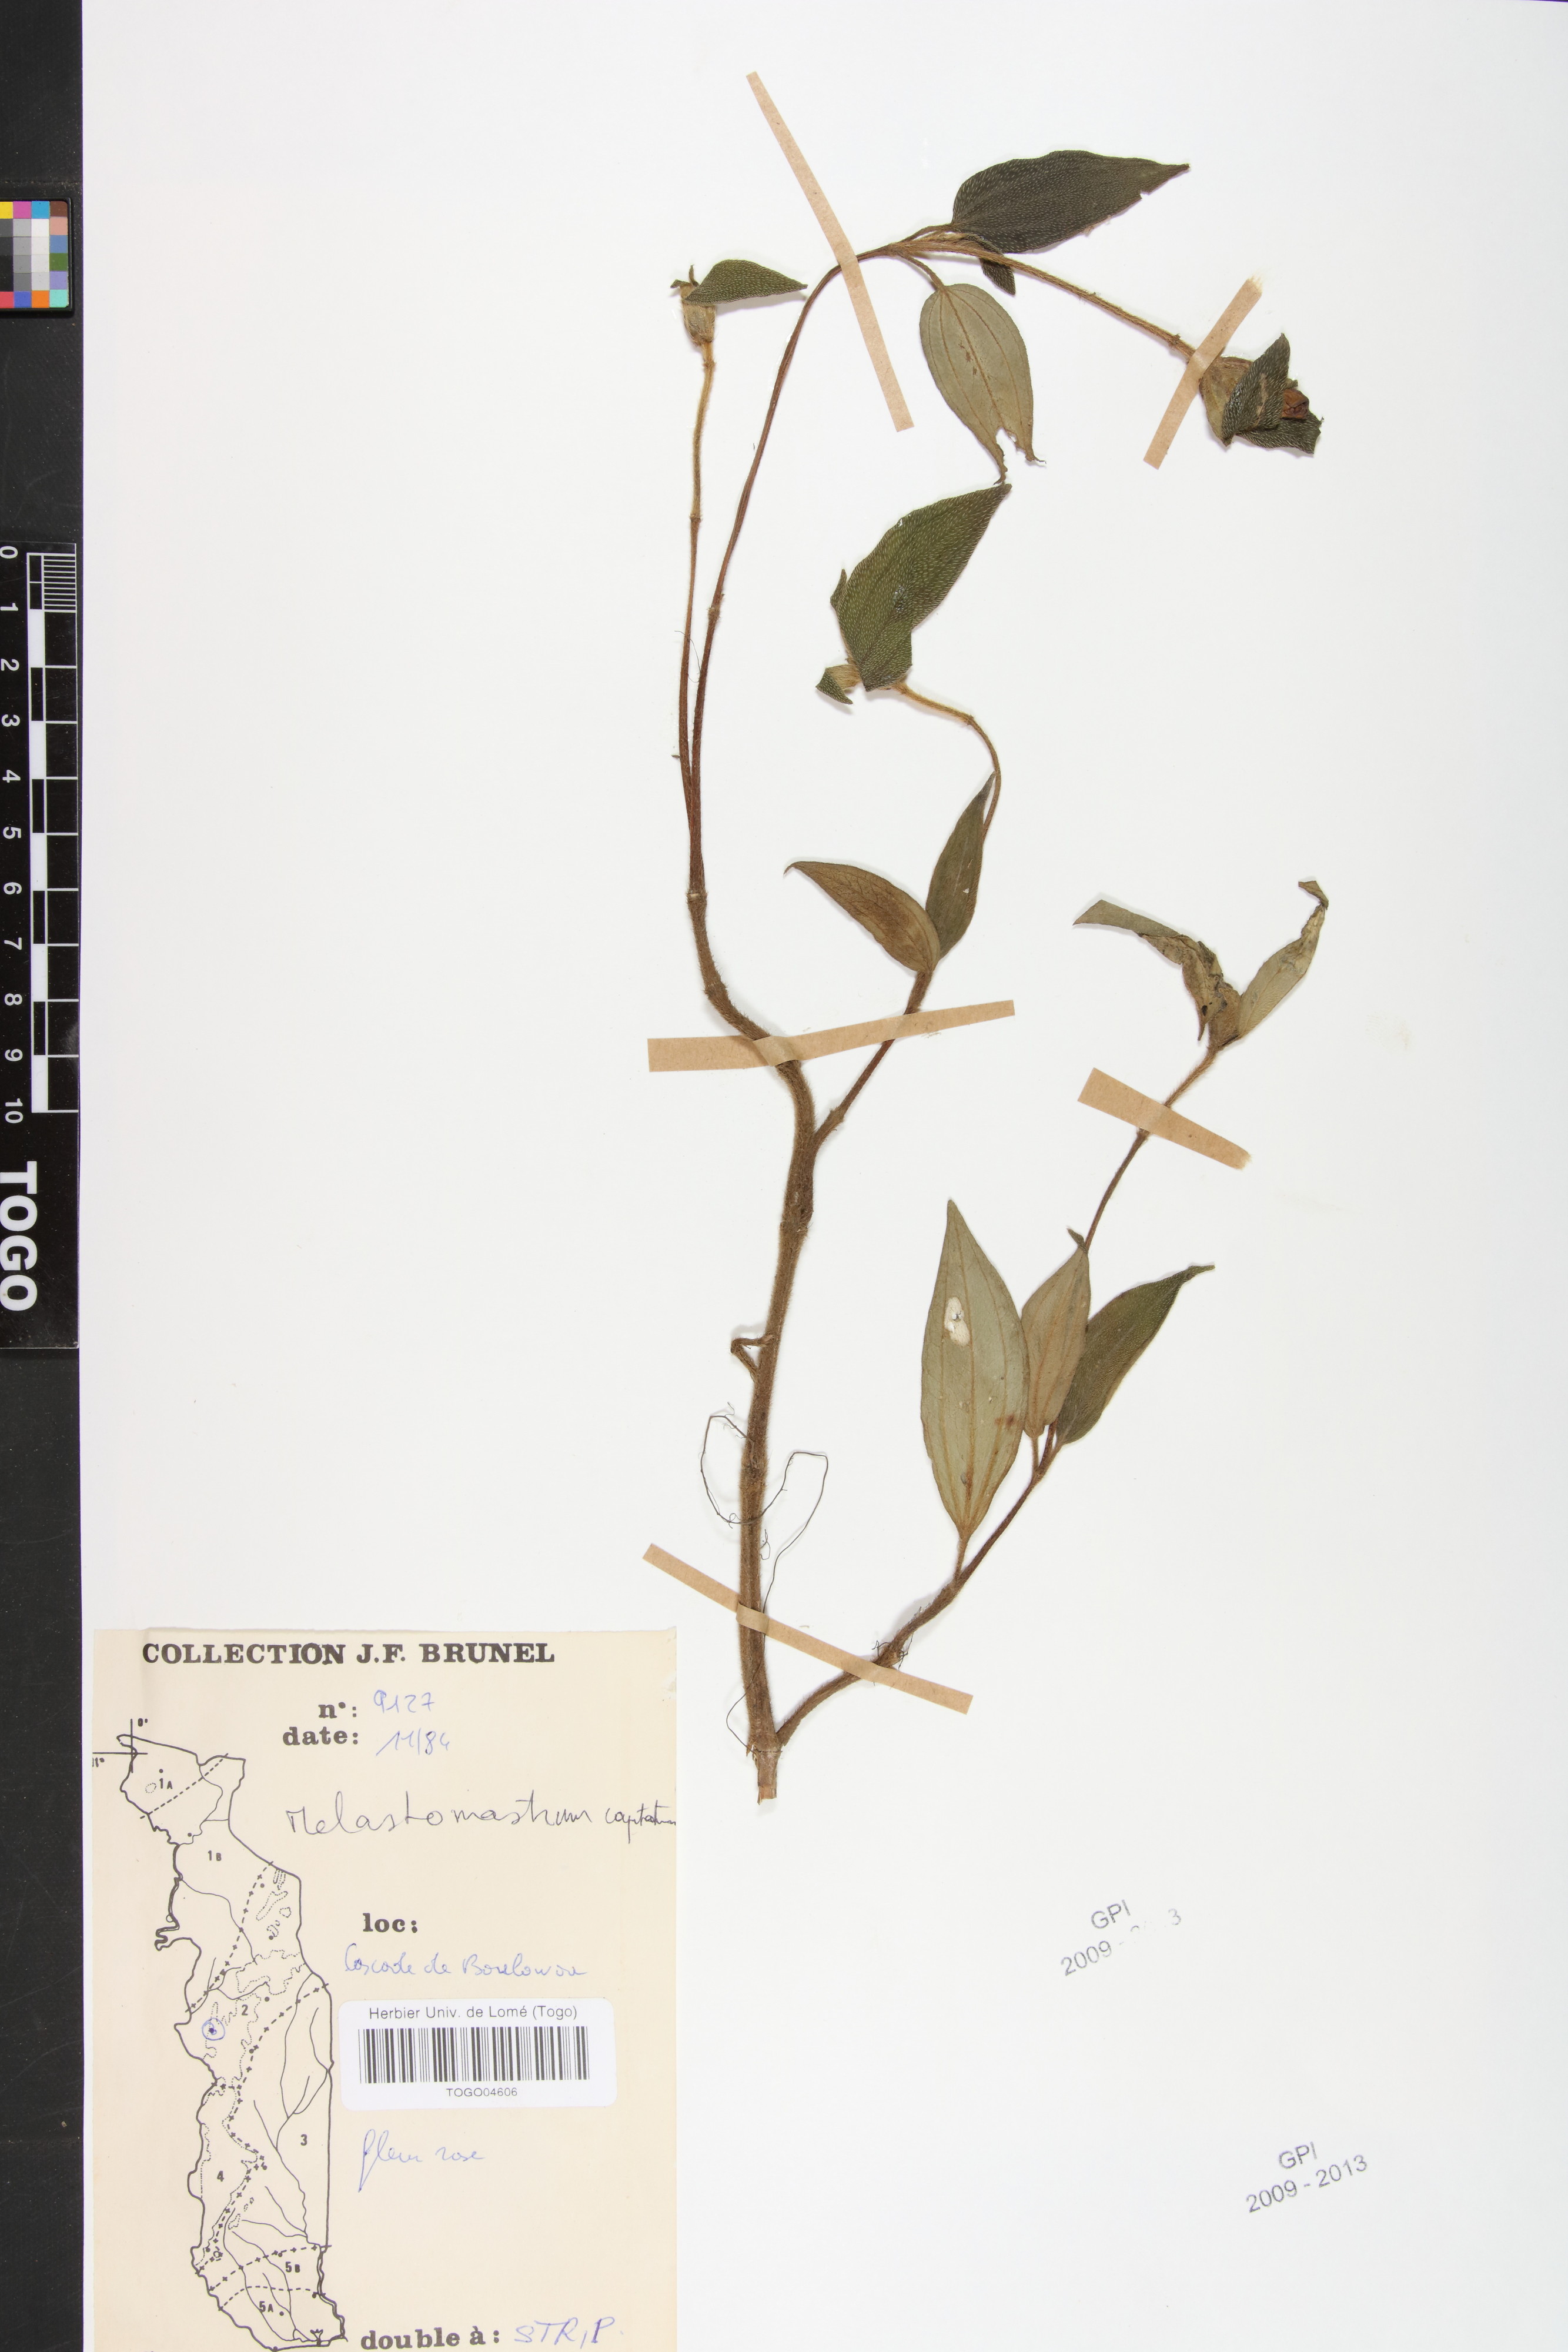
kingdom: Plantae
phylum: Tracheophyta
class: Magnoliopsida
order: Myrtales
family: Melastomataceae
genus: Melastomastrum
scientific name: Melastomastrum capitatum
